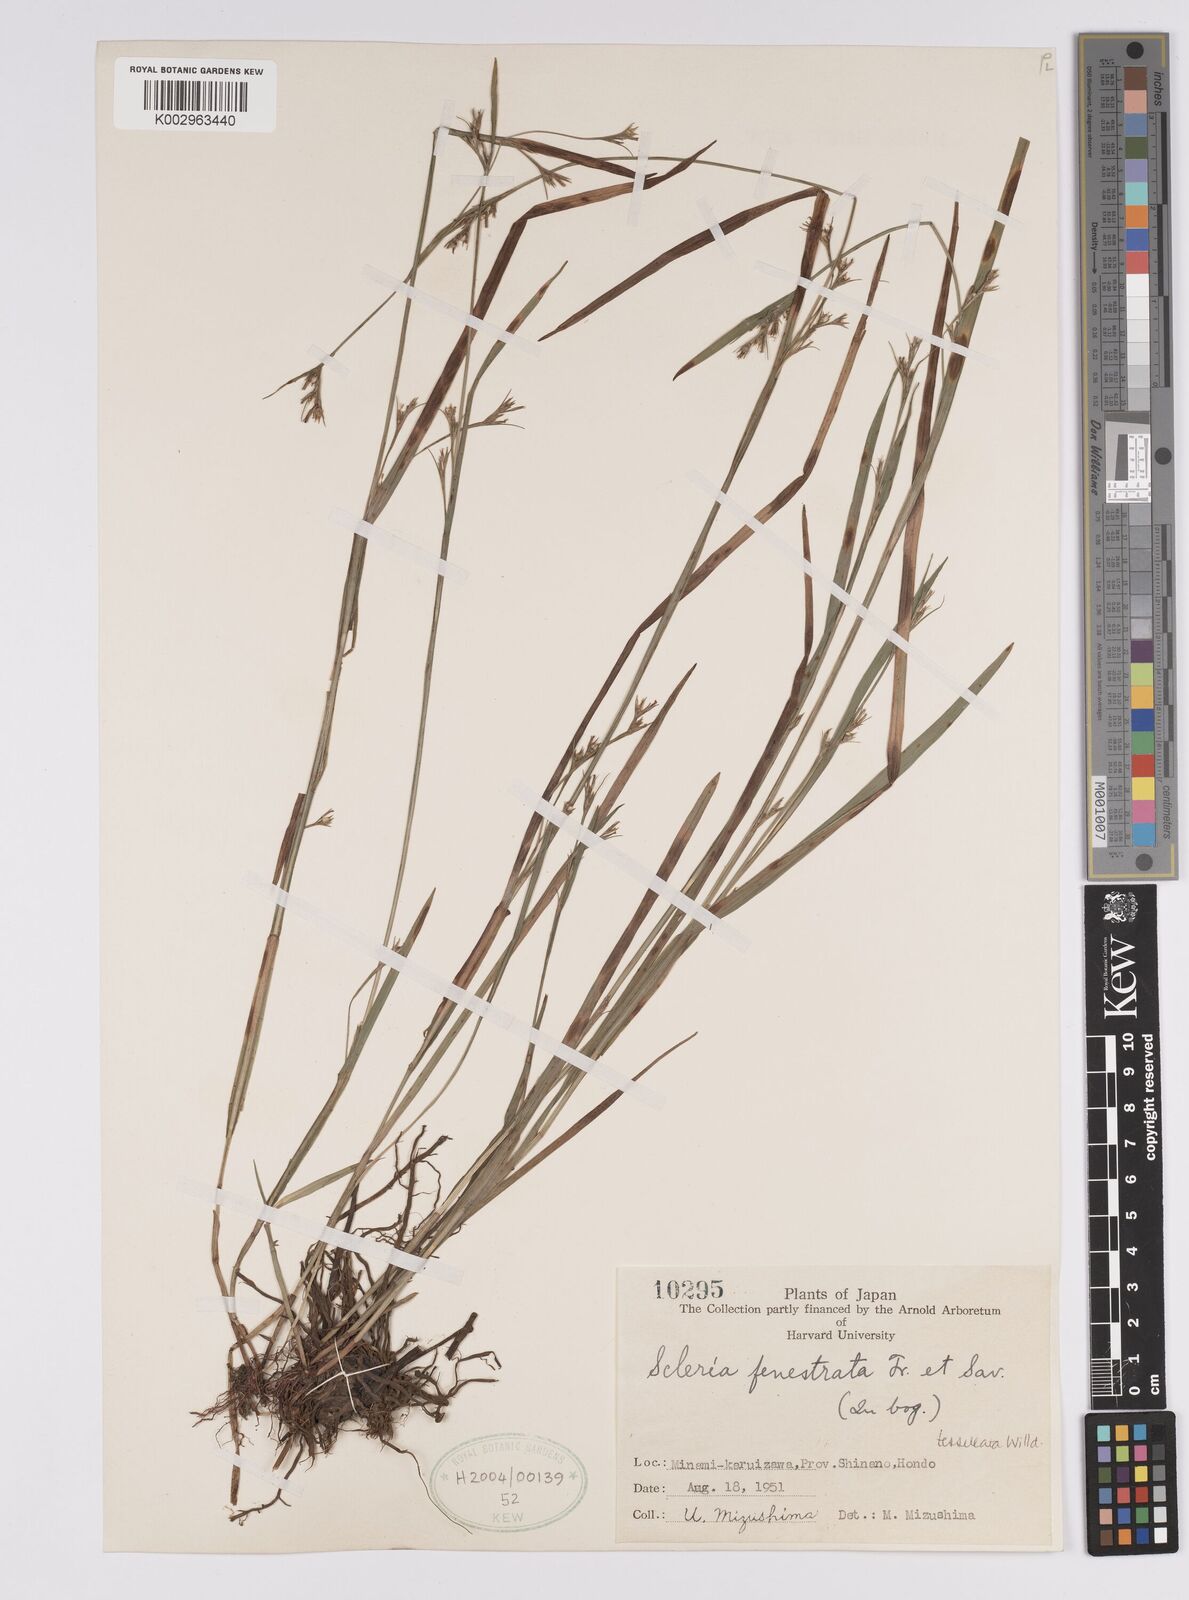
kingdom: Plantae
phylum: Tracheophyta
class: Liliopsida
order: Poales
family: Cyperaceae
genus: Scleria
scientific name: Scleria parvula
